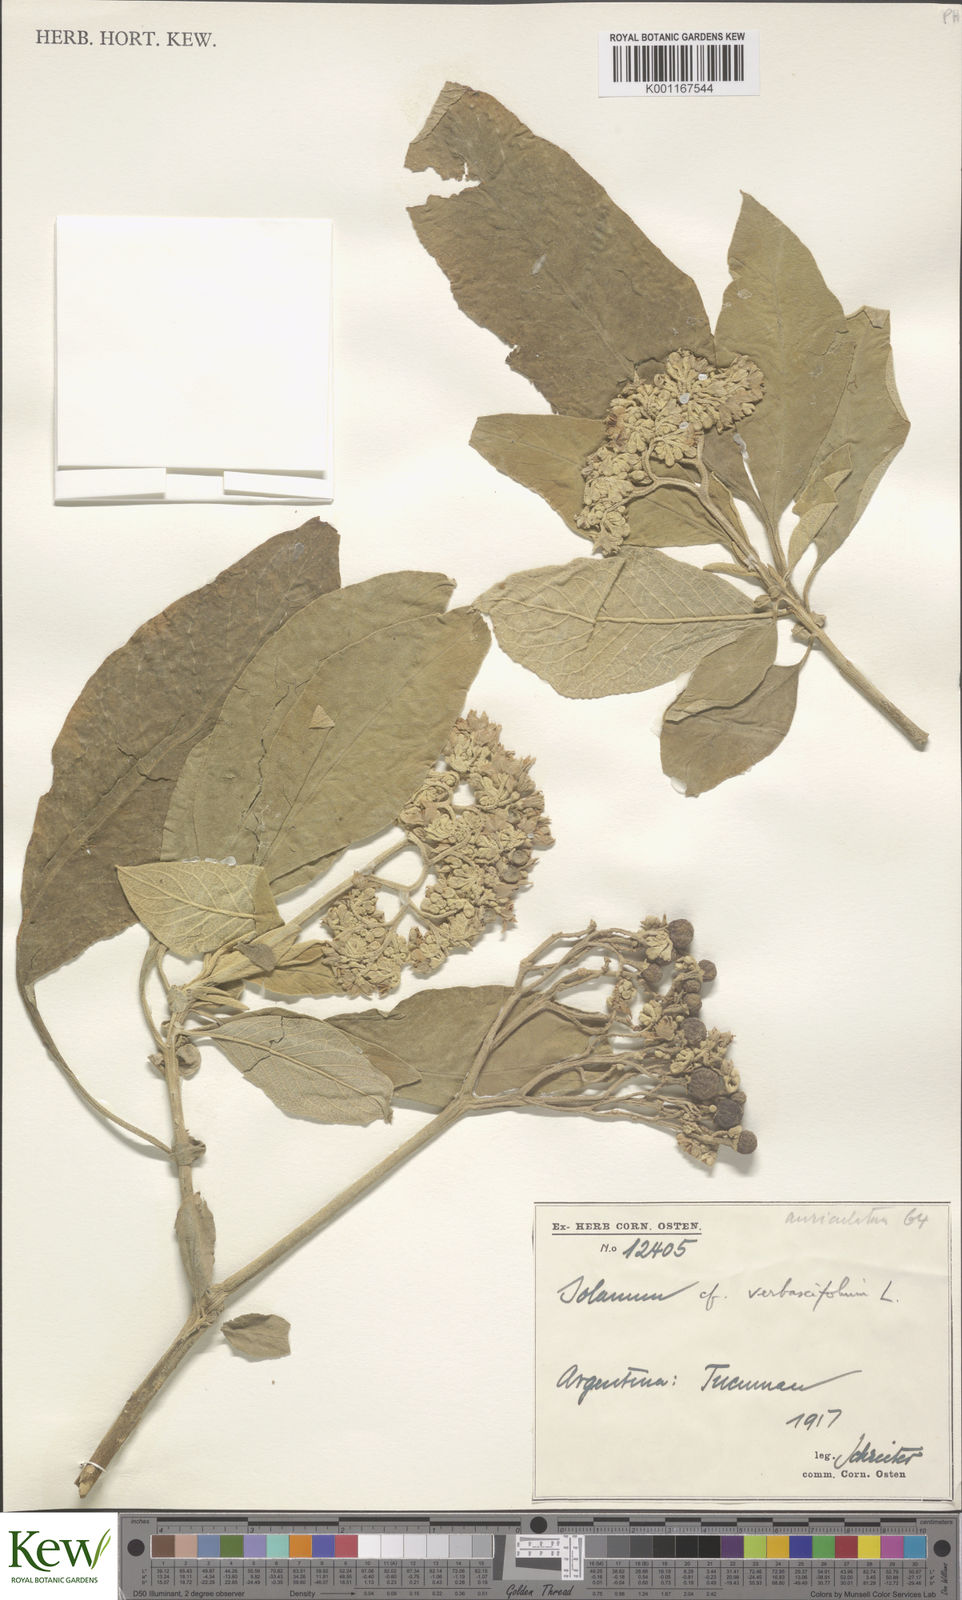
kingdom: Plantae
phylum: Tracheophyta
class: Magnoliopsida
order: Solanales
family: Solanaceae
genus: Solanum
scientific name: Solanum erianthum
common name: Tobacco-tree
